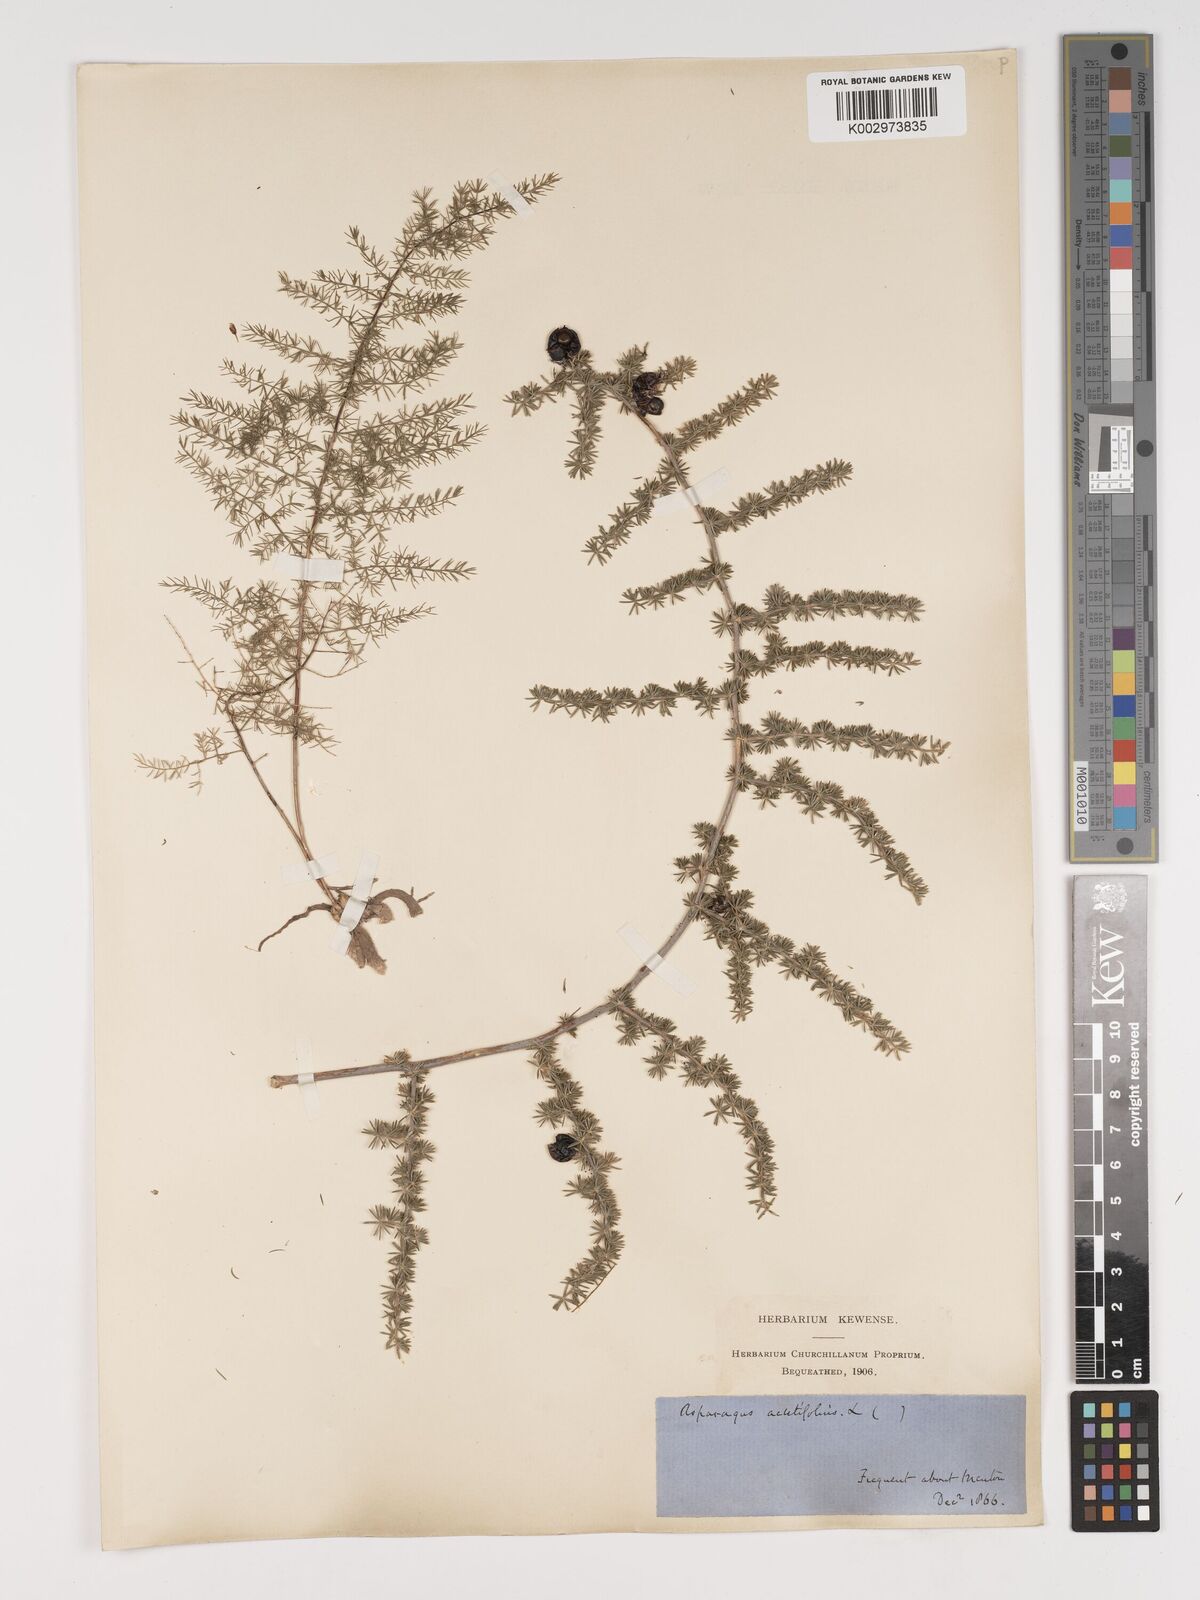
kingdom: Plantae
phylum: Tracheophyta
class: Liliopsida
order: Asparagales
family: Asparagaceae
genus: Asparagus
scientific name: Asparagus aethiopicus
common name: Sprenger's asparagus fern
